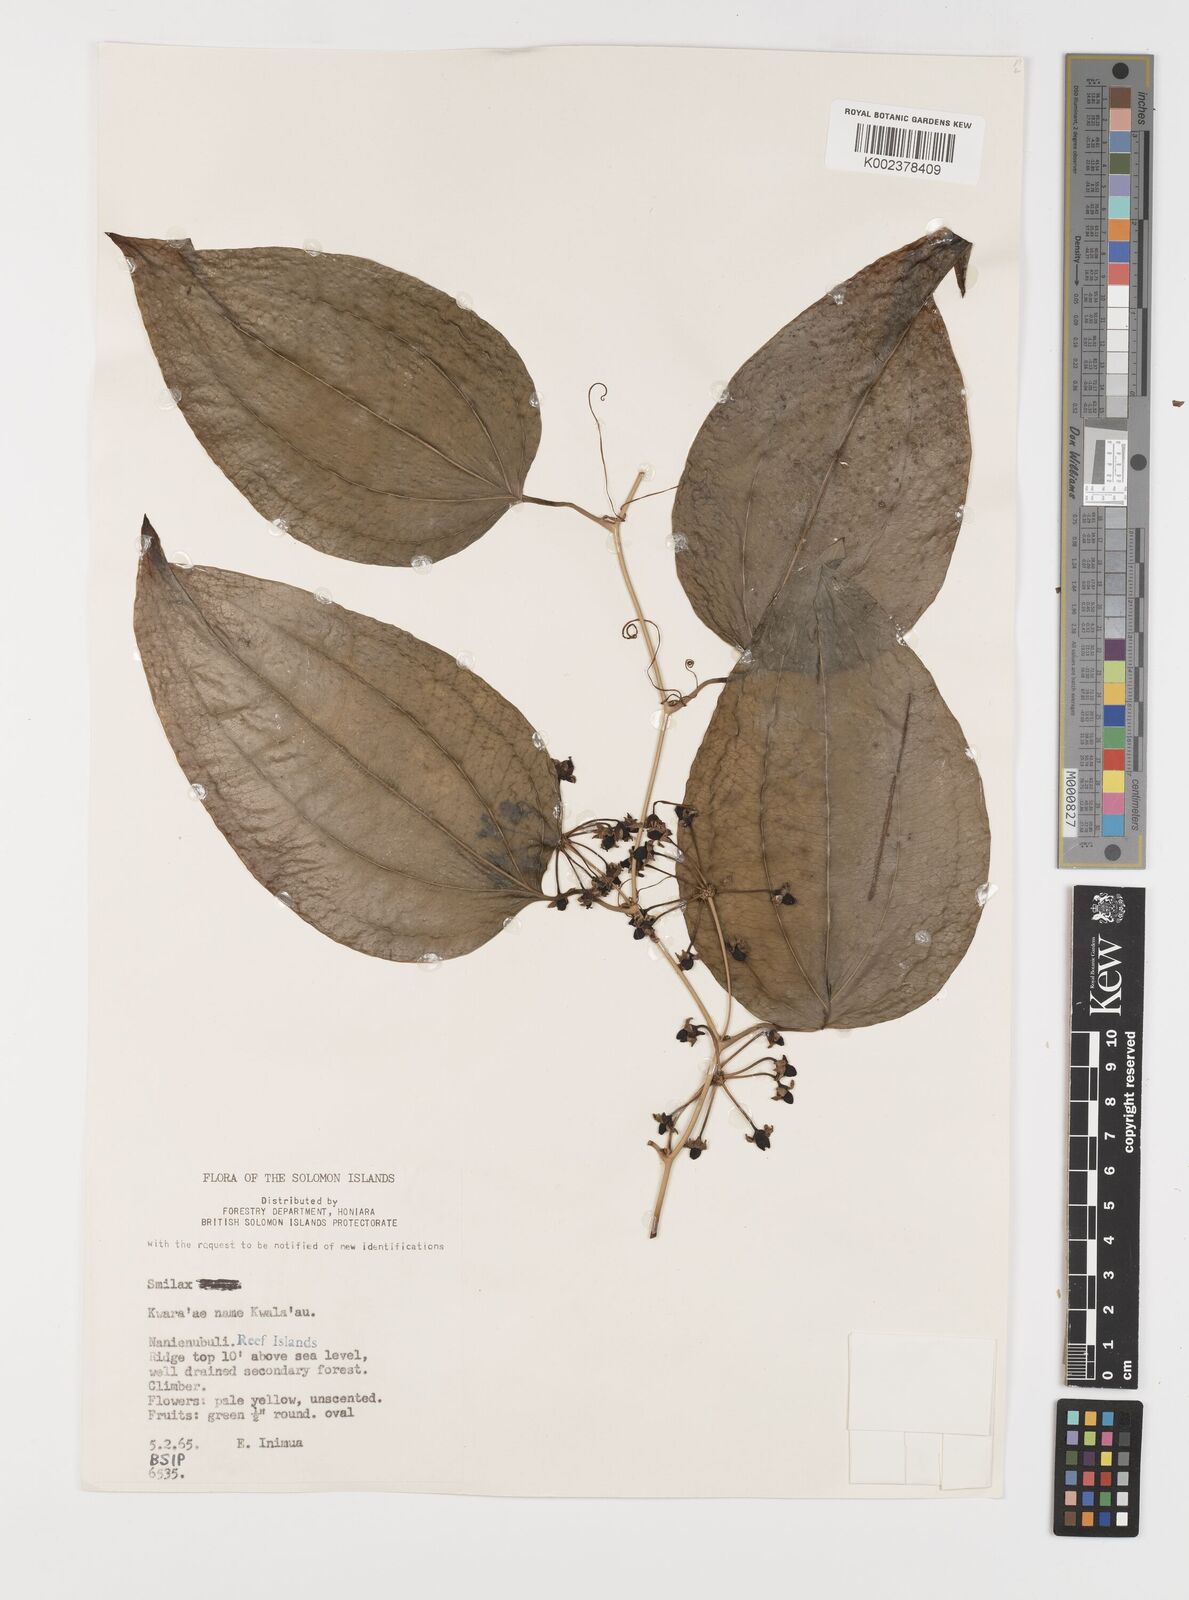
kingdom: Plantae
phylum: Tracheophyta
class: Liliopsida
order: Liliales
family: Smilacaceae
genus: Smilax
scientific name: Smilax
